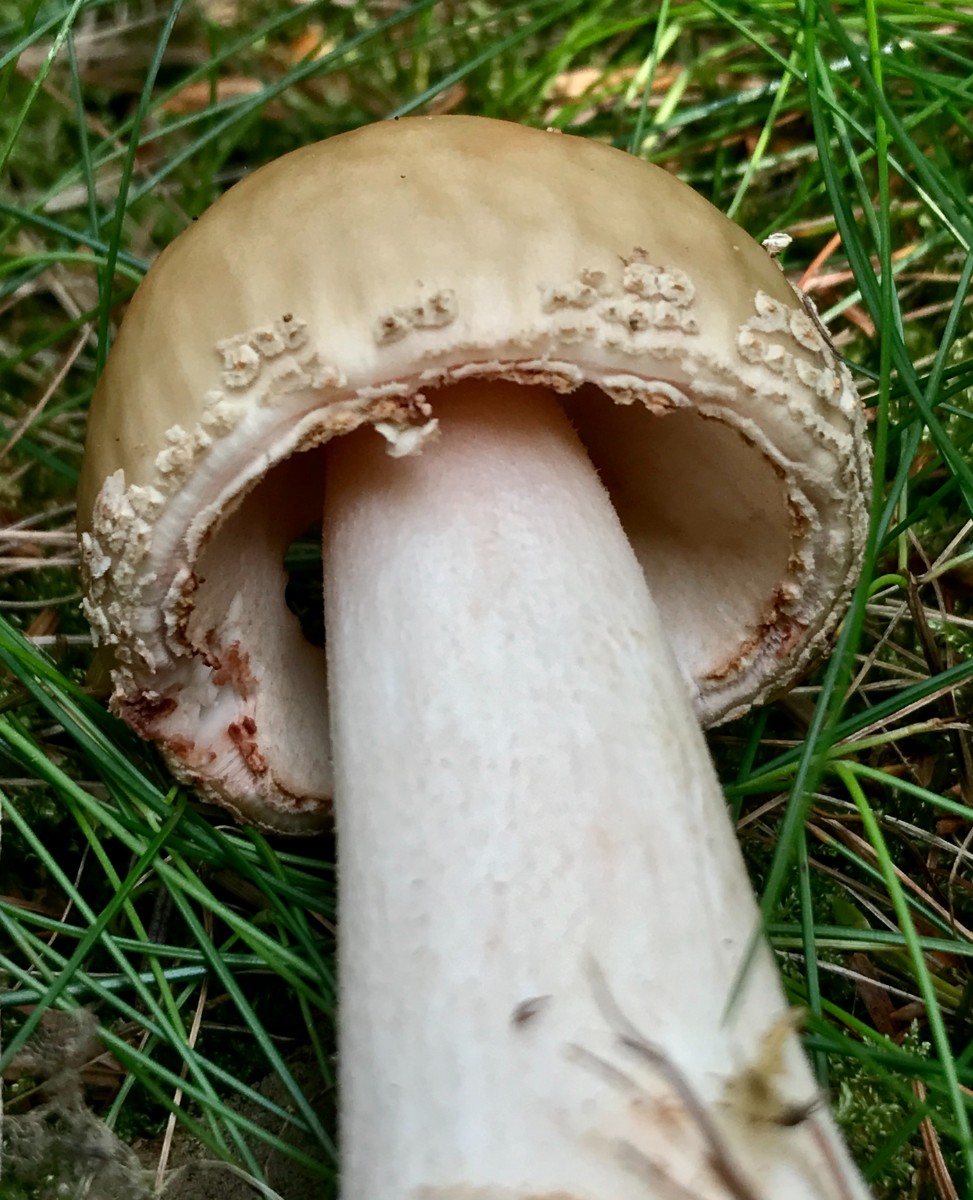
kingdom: Fungi
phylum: Basidiomycota
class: Agaricomycetes
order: Agaricales
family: Amanitaceae
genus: Amanita
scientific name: Amanita rubescens
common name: rødmende fluesvamp
